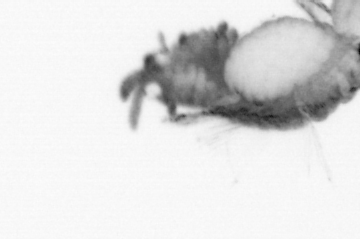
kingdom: Animalia
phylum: Annelida
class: Polychaeta
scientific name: Polychaeta
